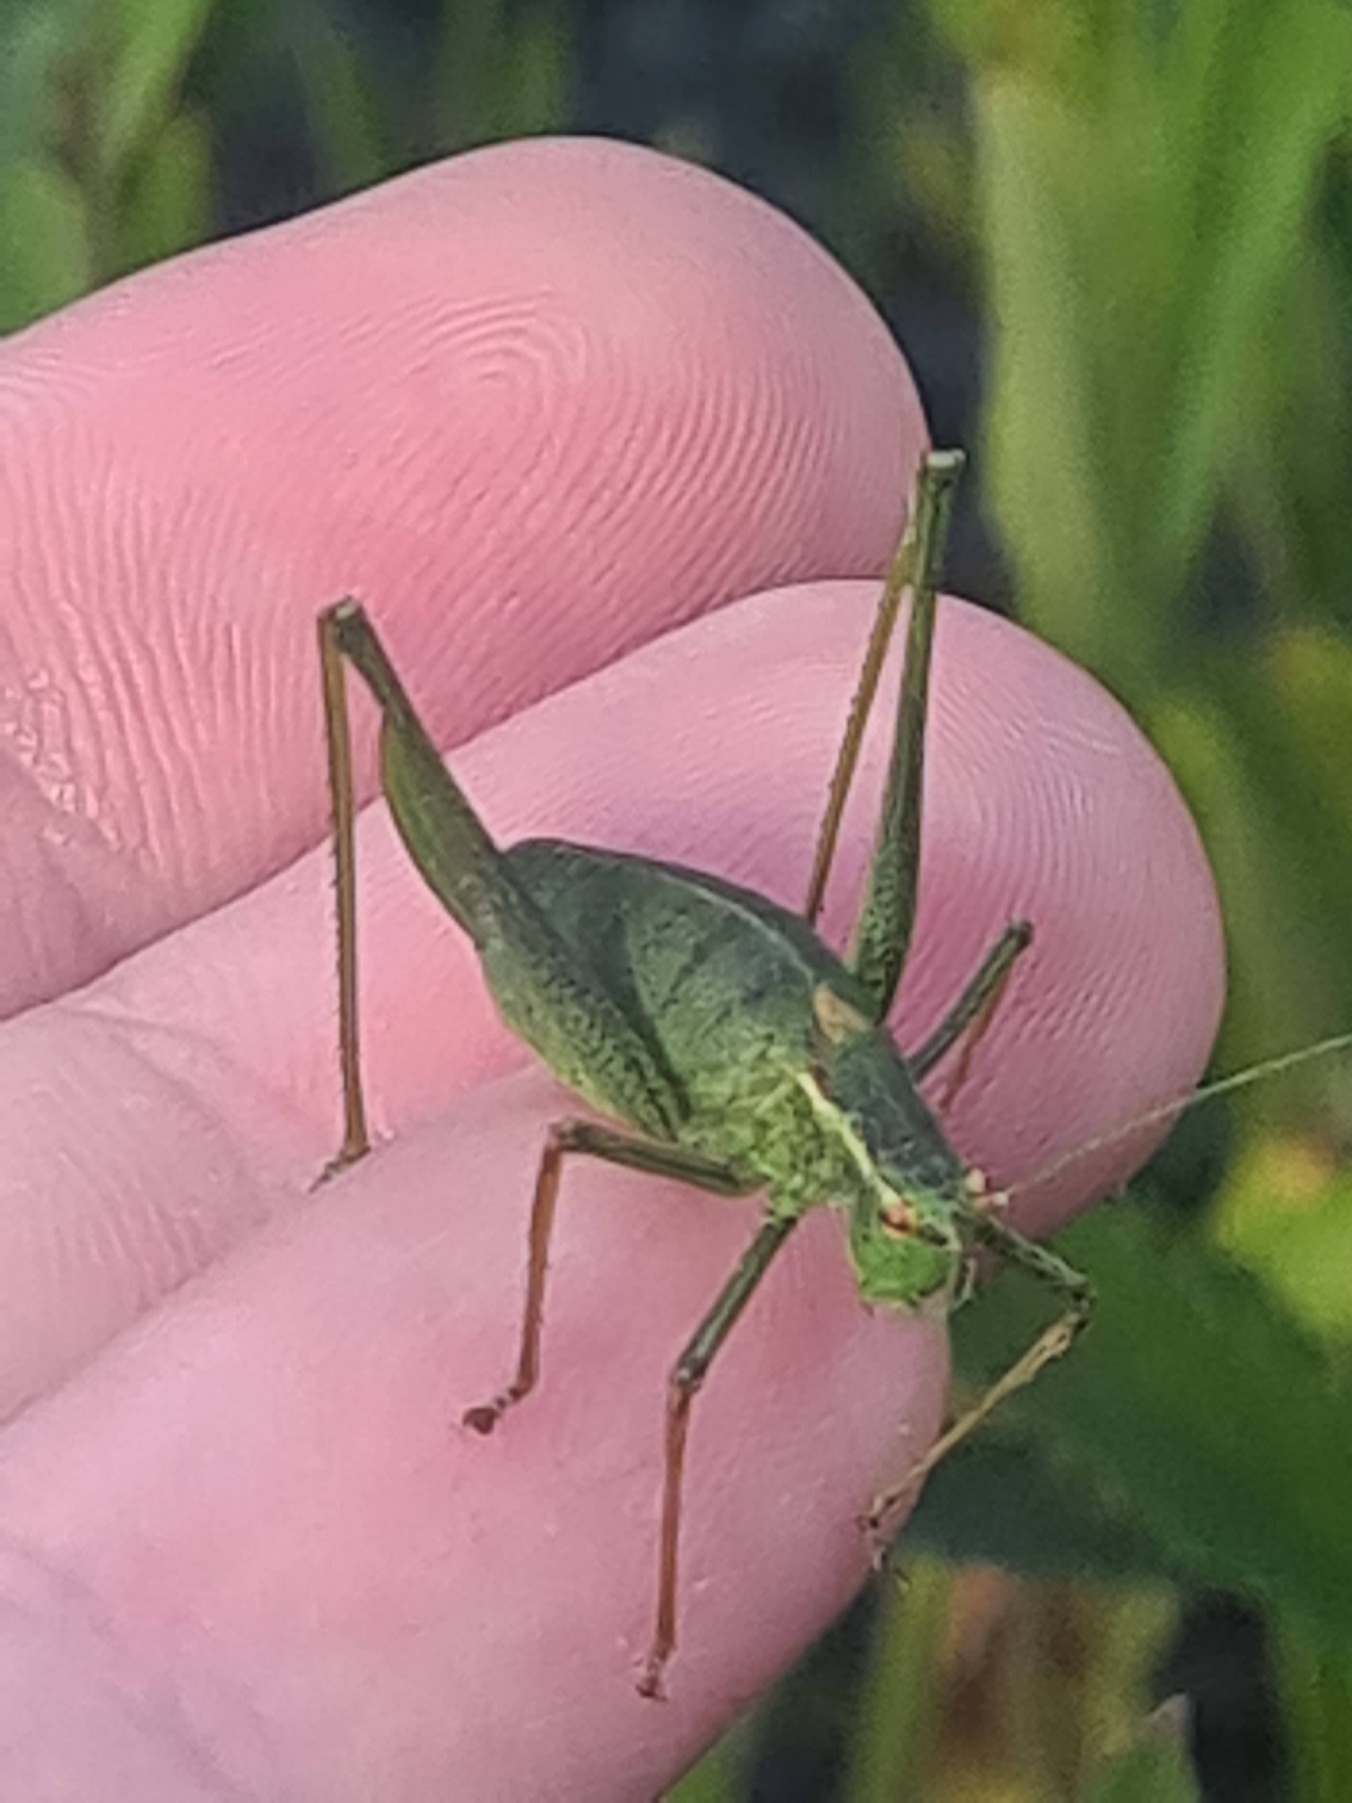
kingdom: Animalia
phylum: Arthropoda
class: Insecta
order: Orthoptera
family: Tettigoniidae
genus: Leptophyes
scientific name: Leptophyes punctatissima
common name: Krumknivgræshoppe
